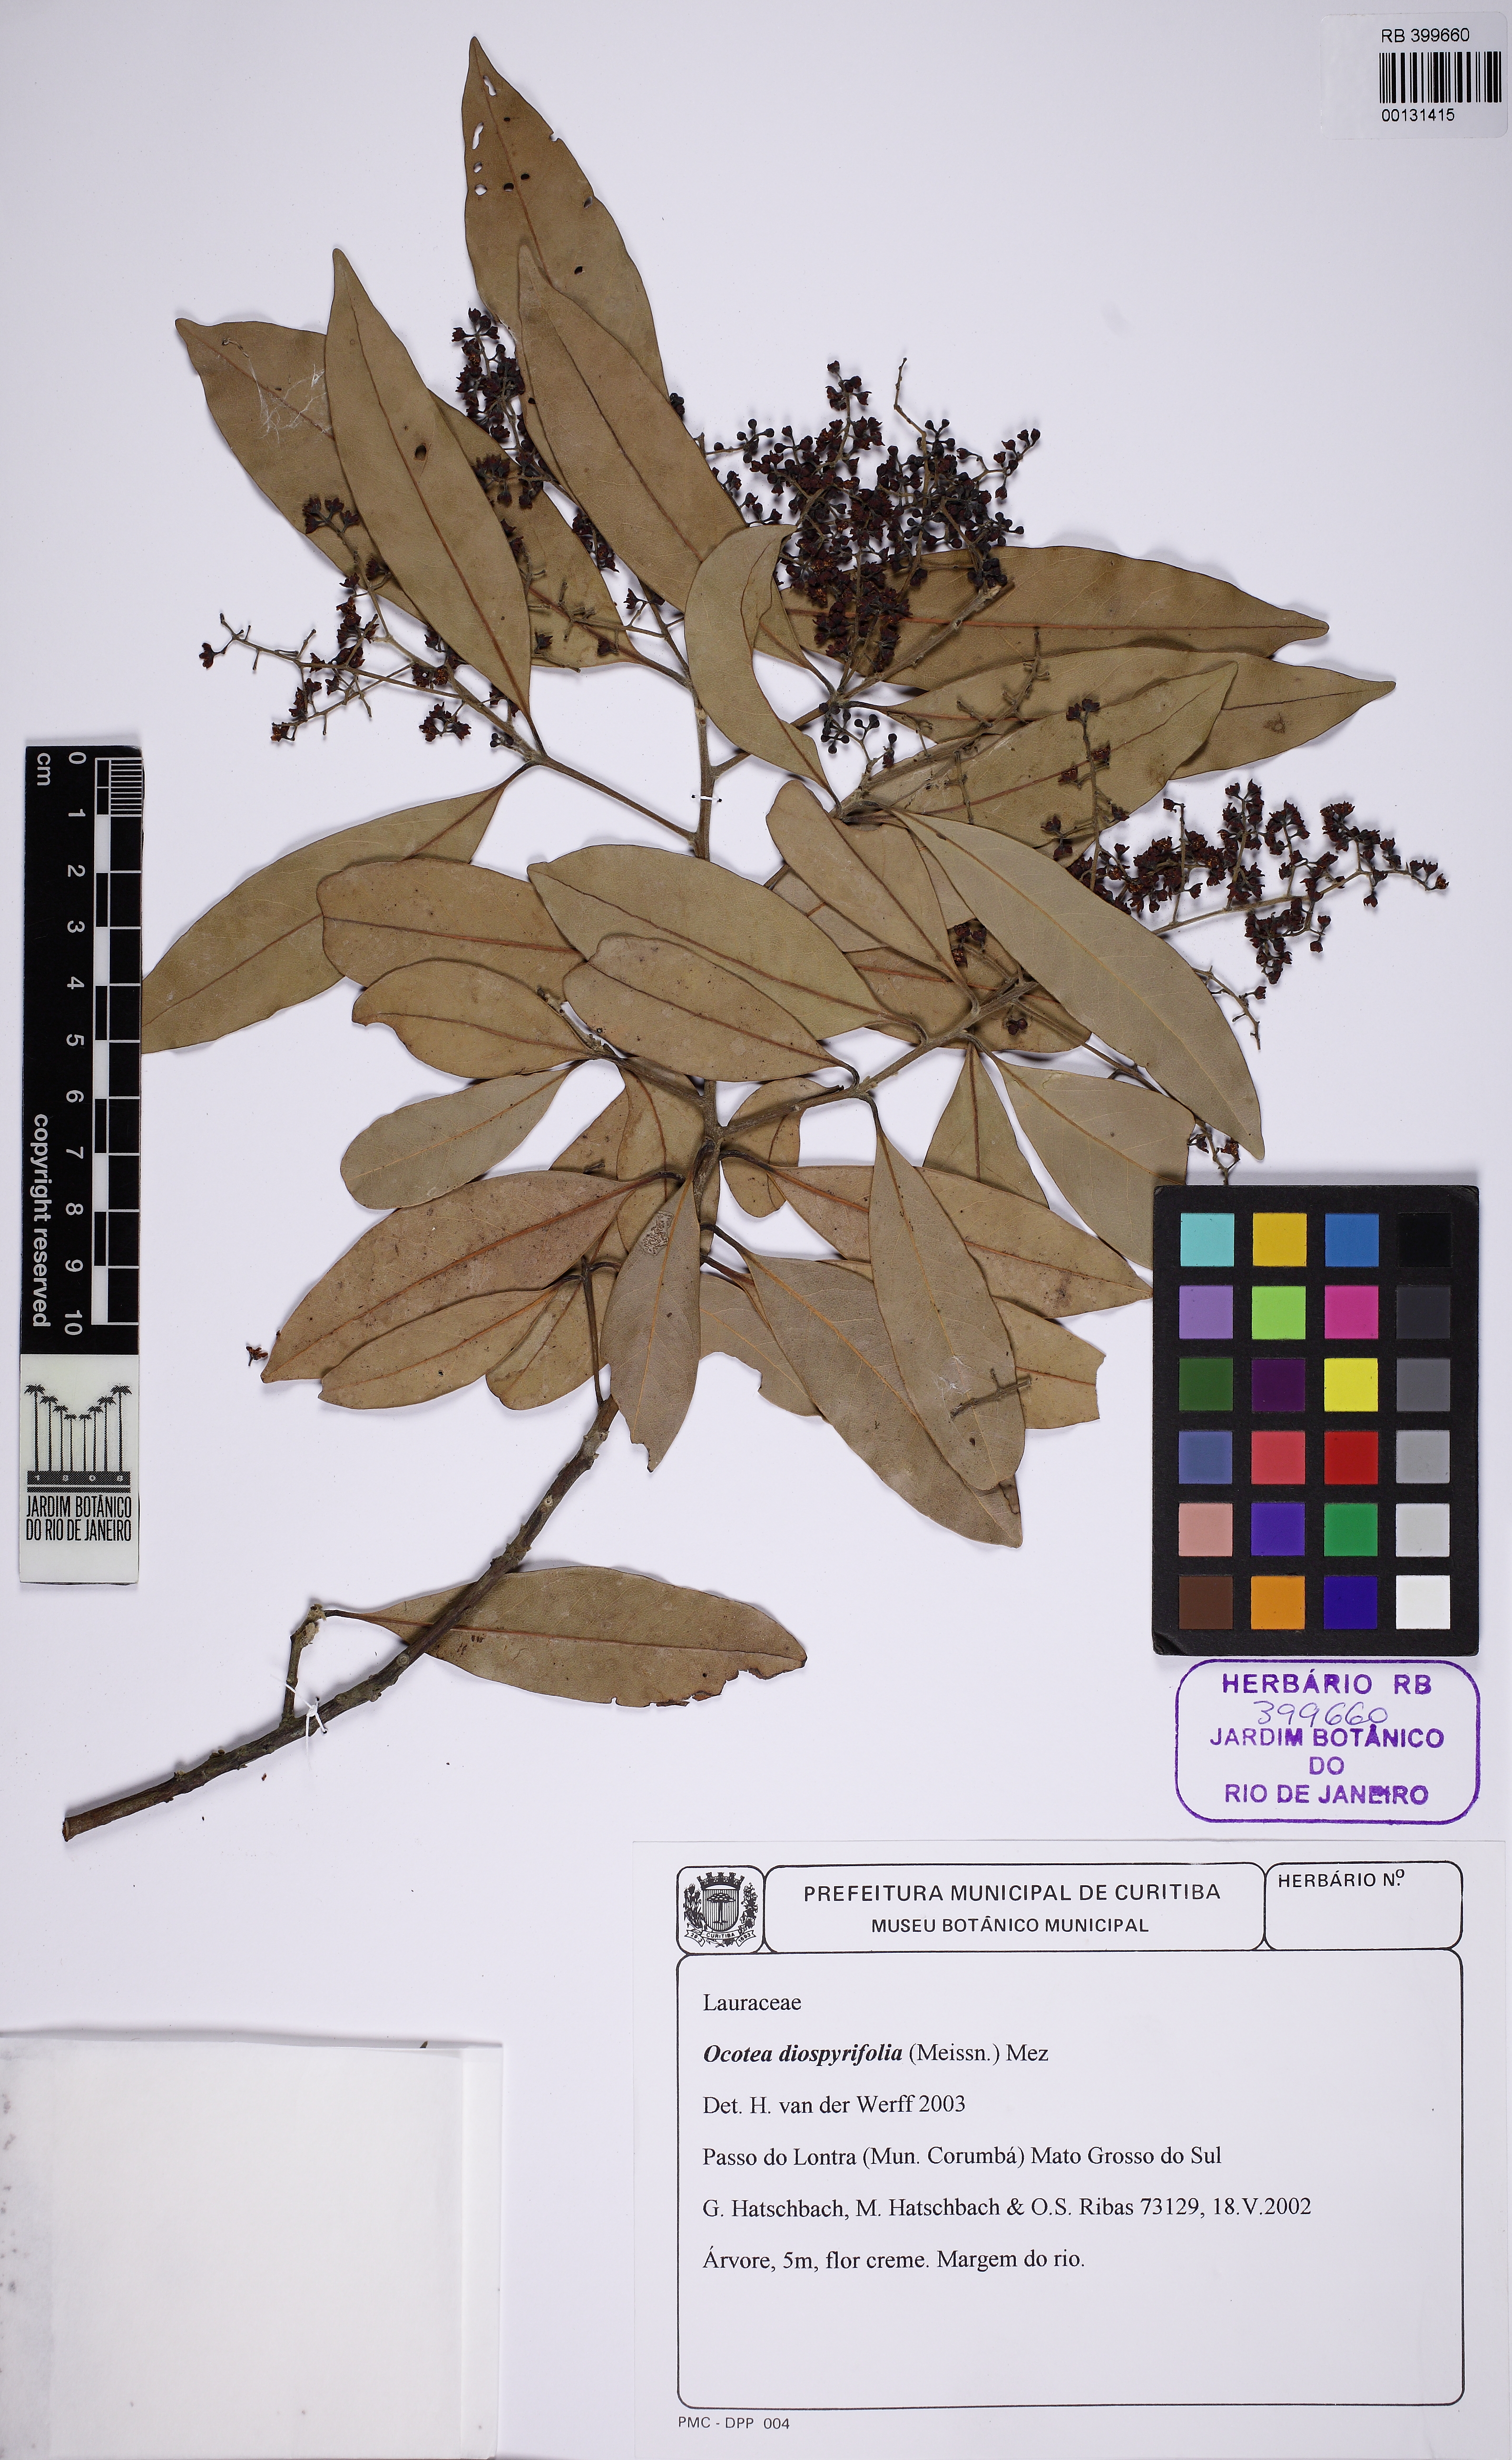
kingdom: Plantae
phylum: Tracheophyta
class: Magnoliopsida
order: Laurales
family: Lauraceae
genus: Ocotea
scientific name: Ocotea diospyrifolia
